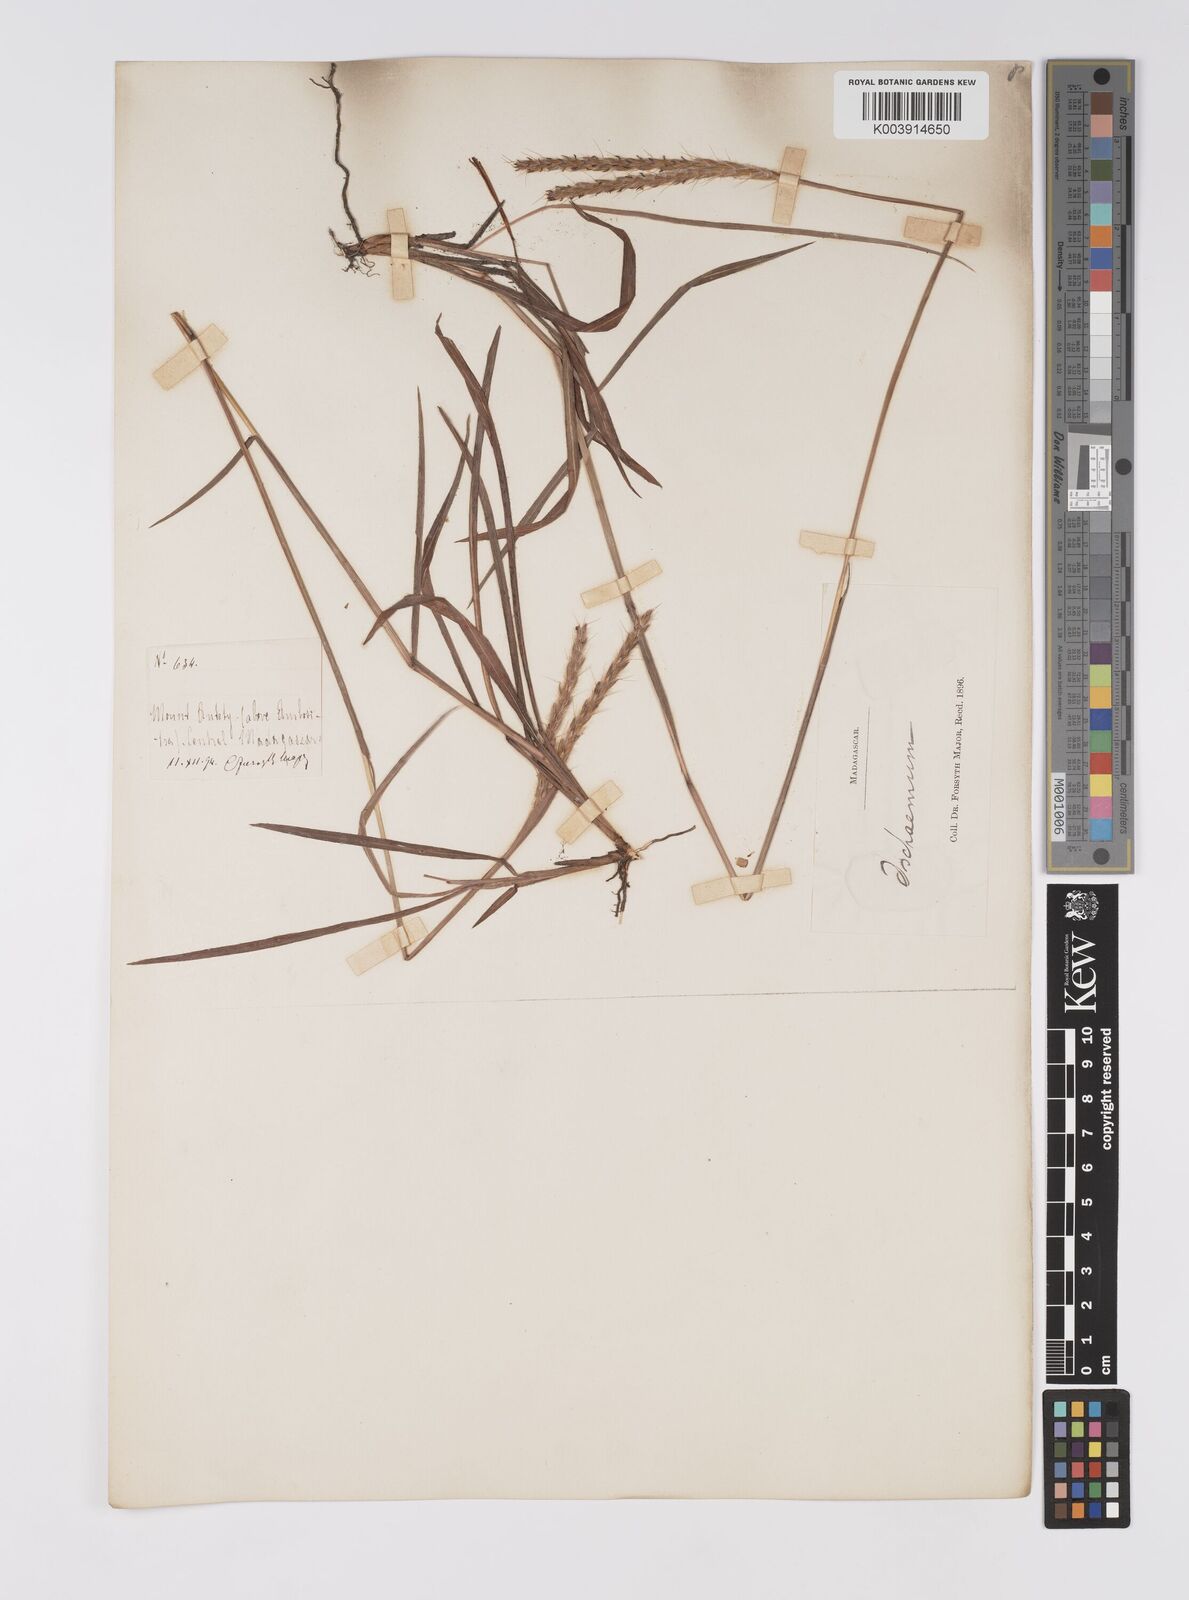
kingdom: Plantae
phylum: Tracheophyta
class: Liliopsida
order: Poales
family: Poaceae
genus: Eulalia
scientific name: Eulalia villosa
